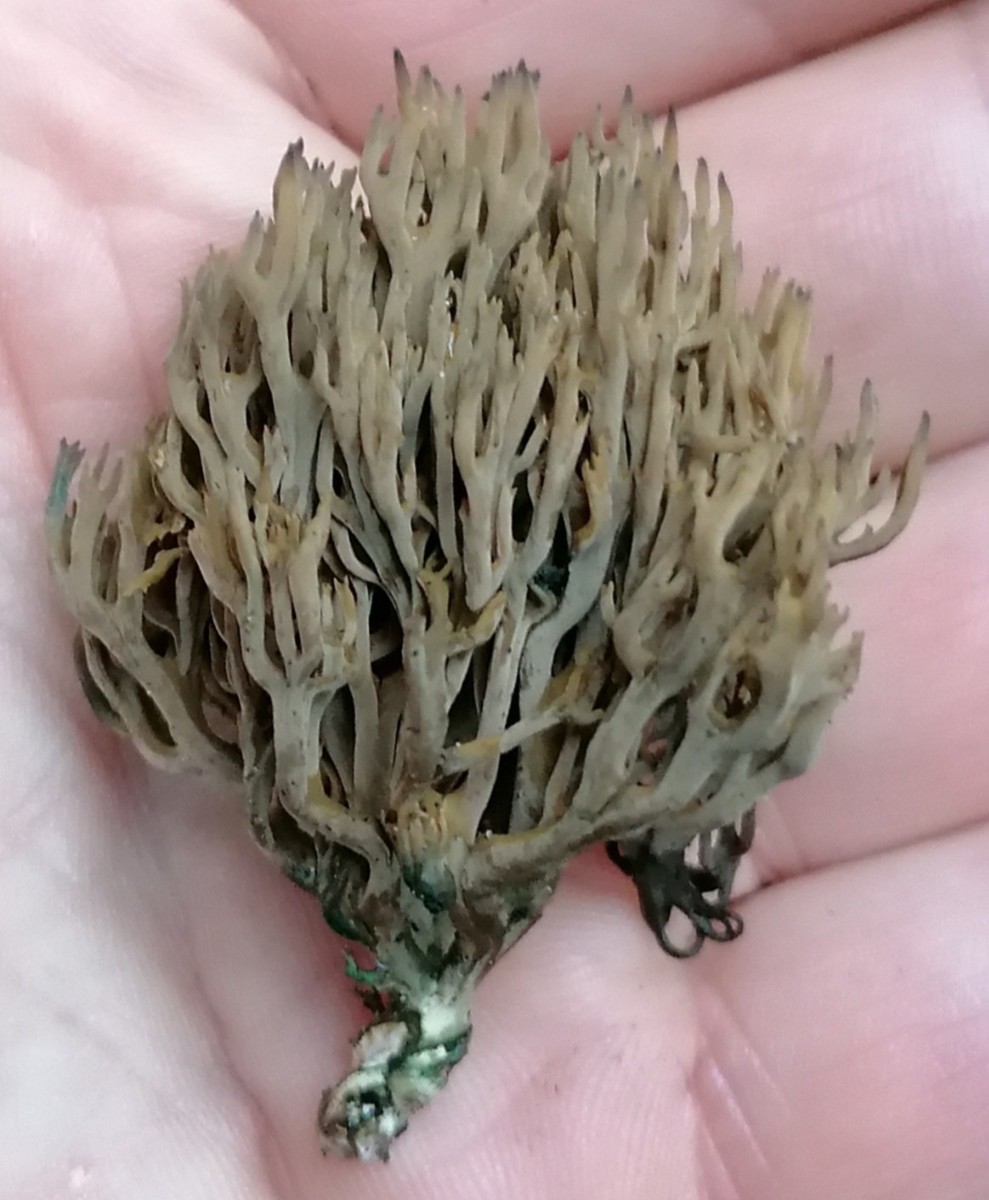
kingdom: Fungi
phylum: Basidiomycota
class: Agaricomycetes
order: Gomphales
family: Gomphaceae
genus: Phaeoclavulina
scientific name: Phaeoclavulina abietina
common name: gulgrøn koralsvamp
